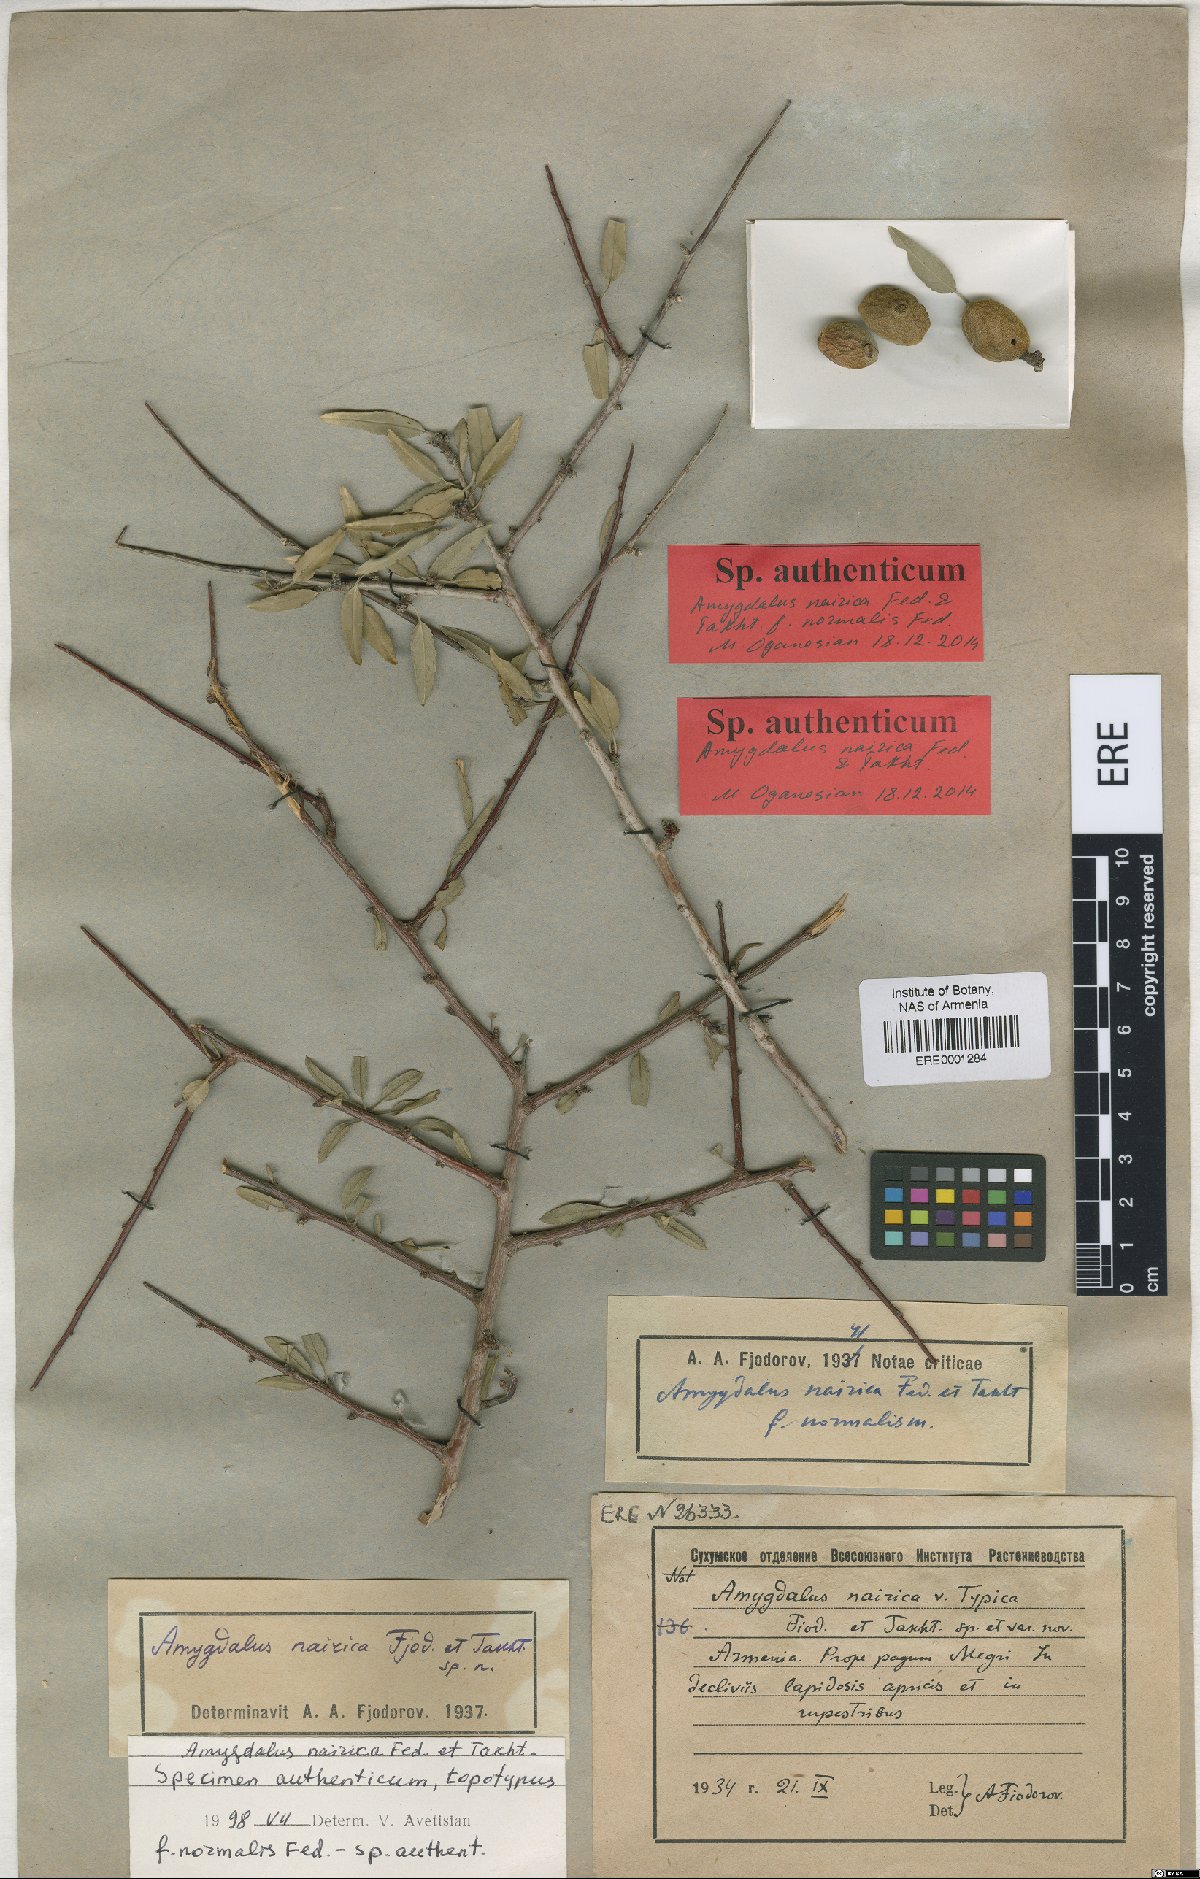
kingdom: Plantae
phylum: Tracheophyta
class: Magnoliopsida
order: Rosales
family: Rosaceae
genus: Prunus
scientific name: Prunus nairica
